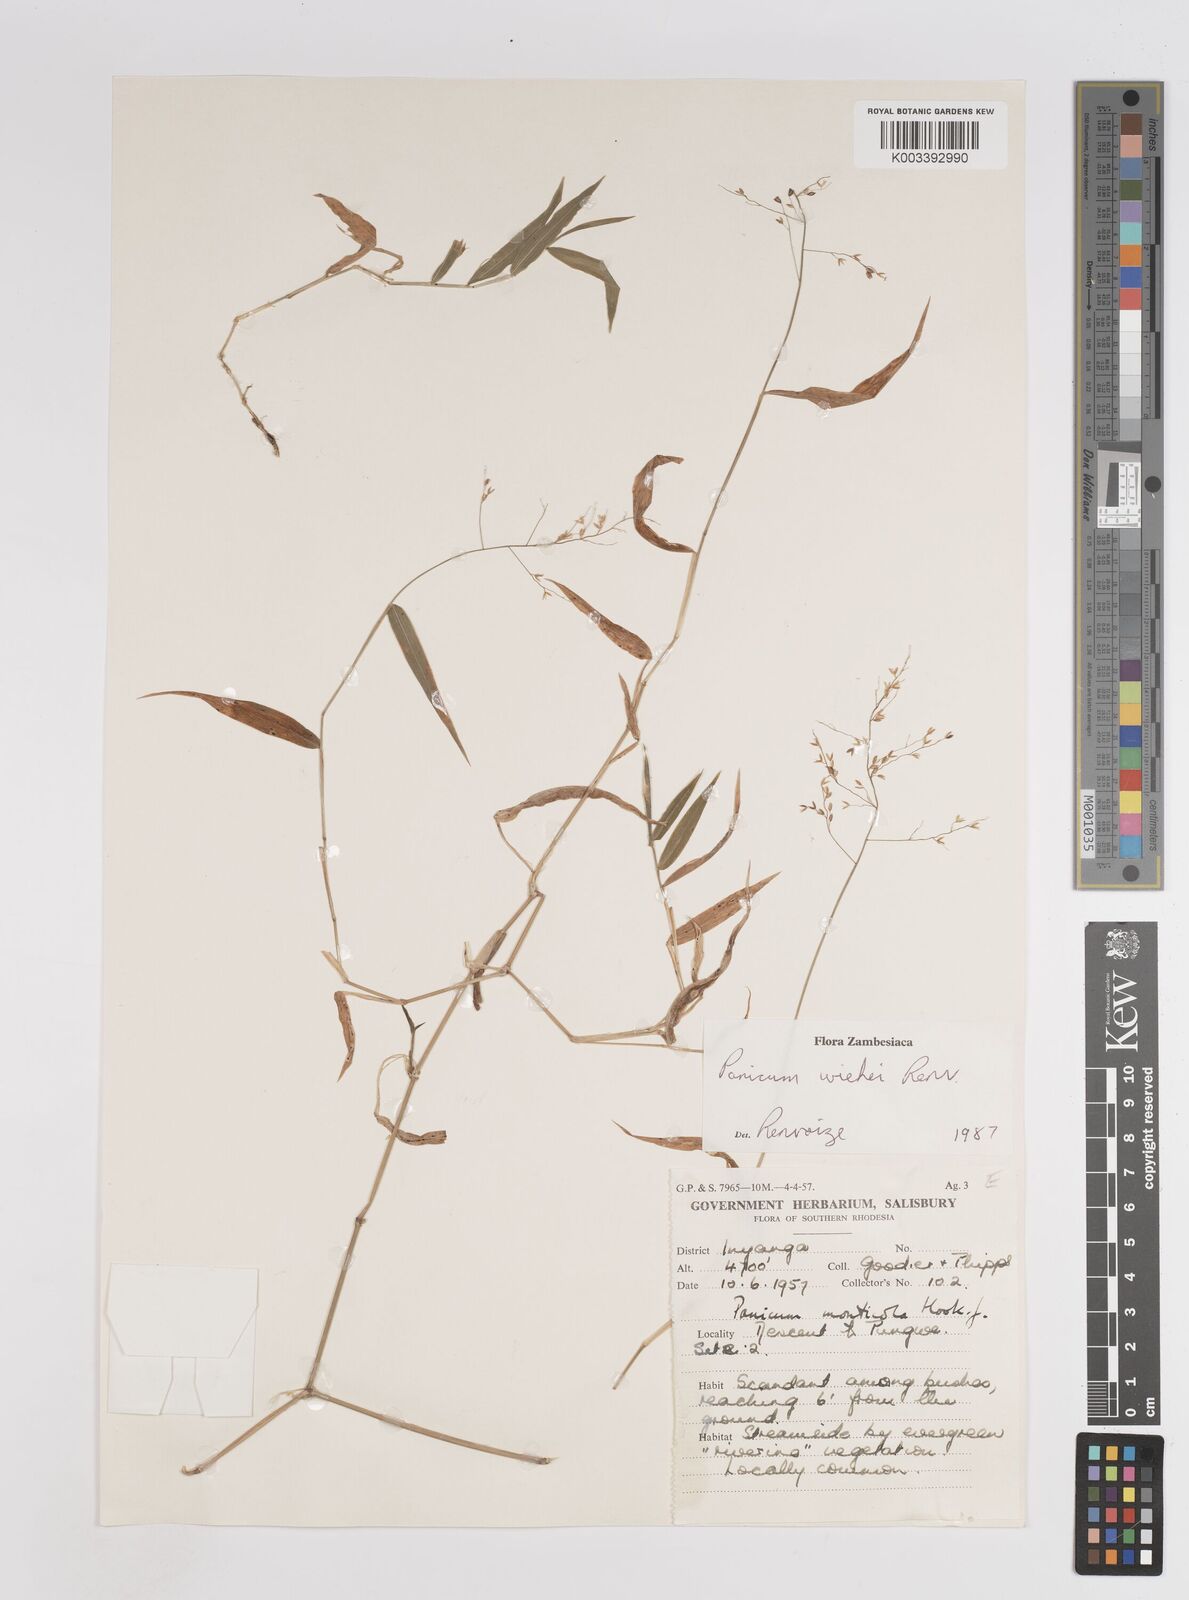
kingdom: Plantae
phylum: Tracheophyta
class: Liliopsida
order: Poales
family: Poaceae
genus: Panicum
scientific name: Panicum wiehei
